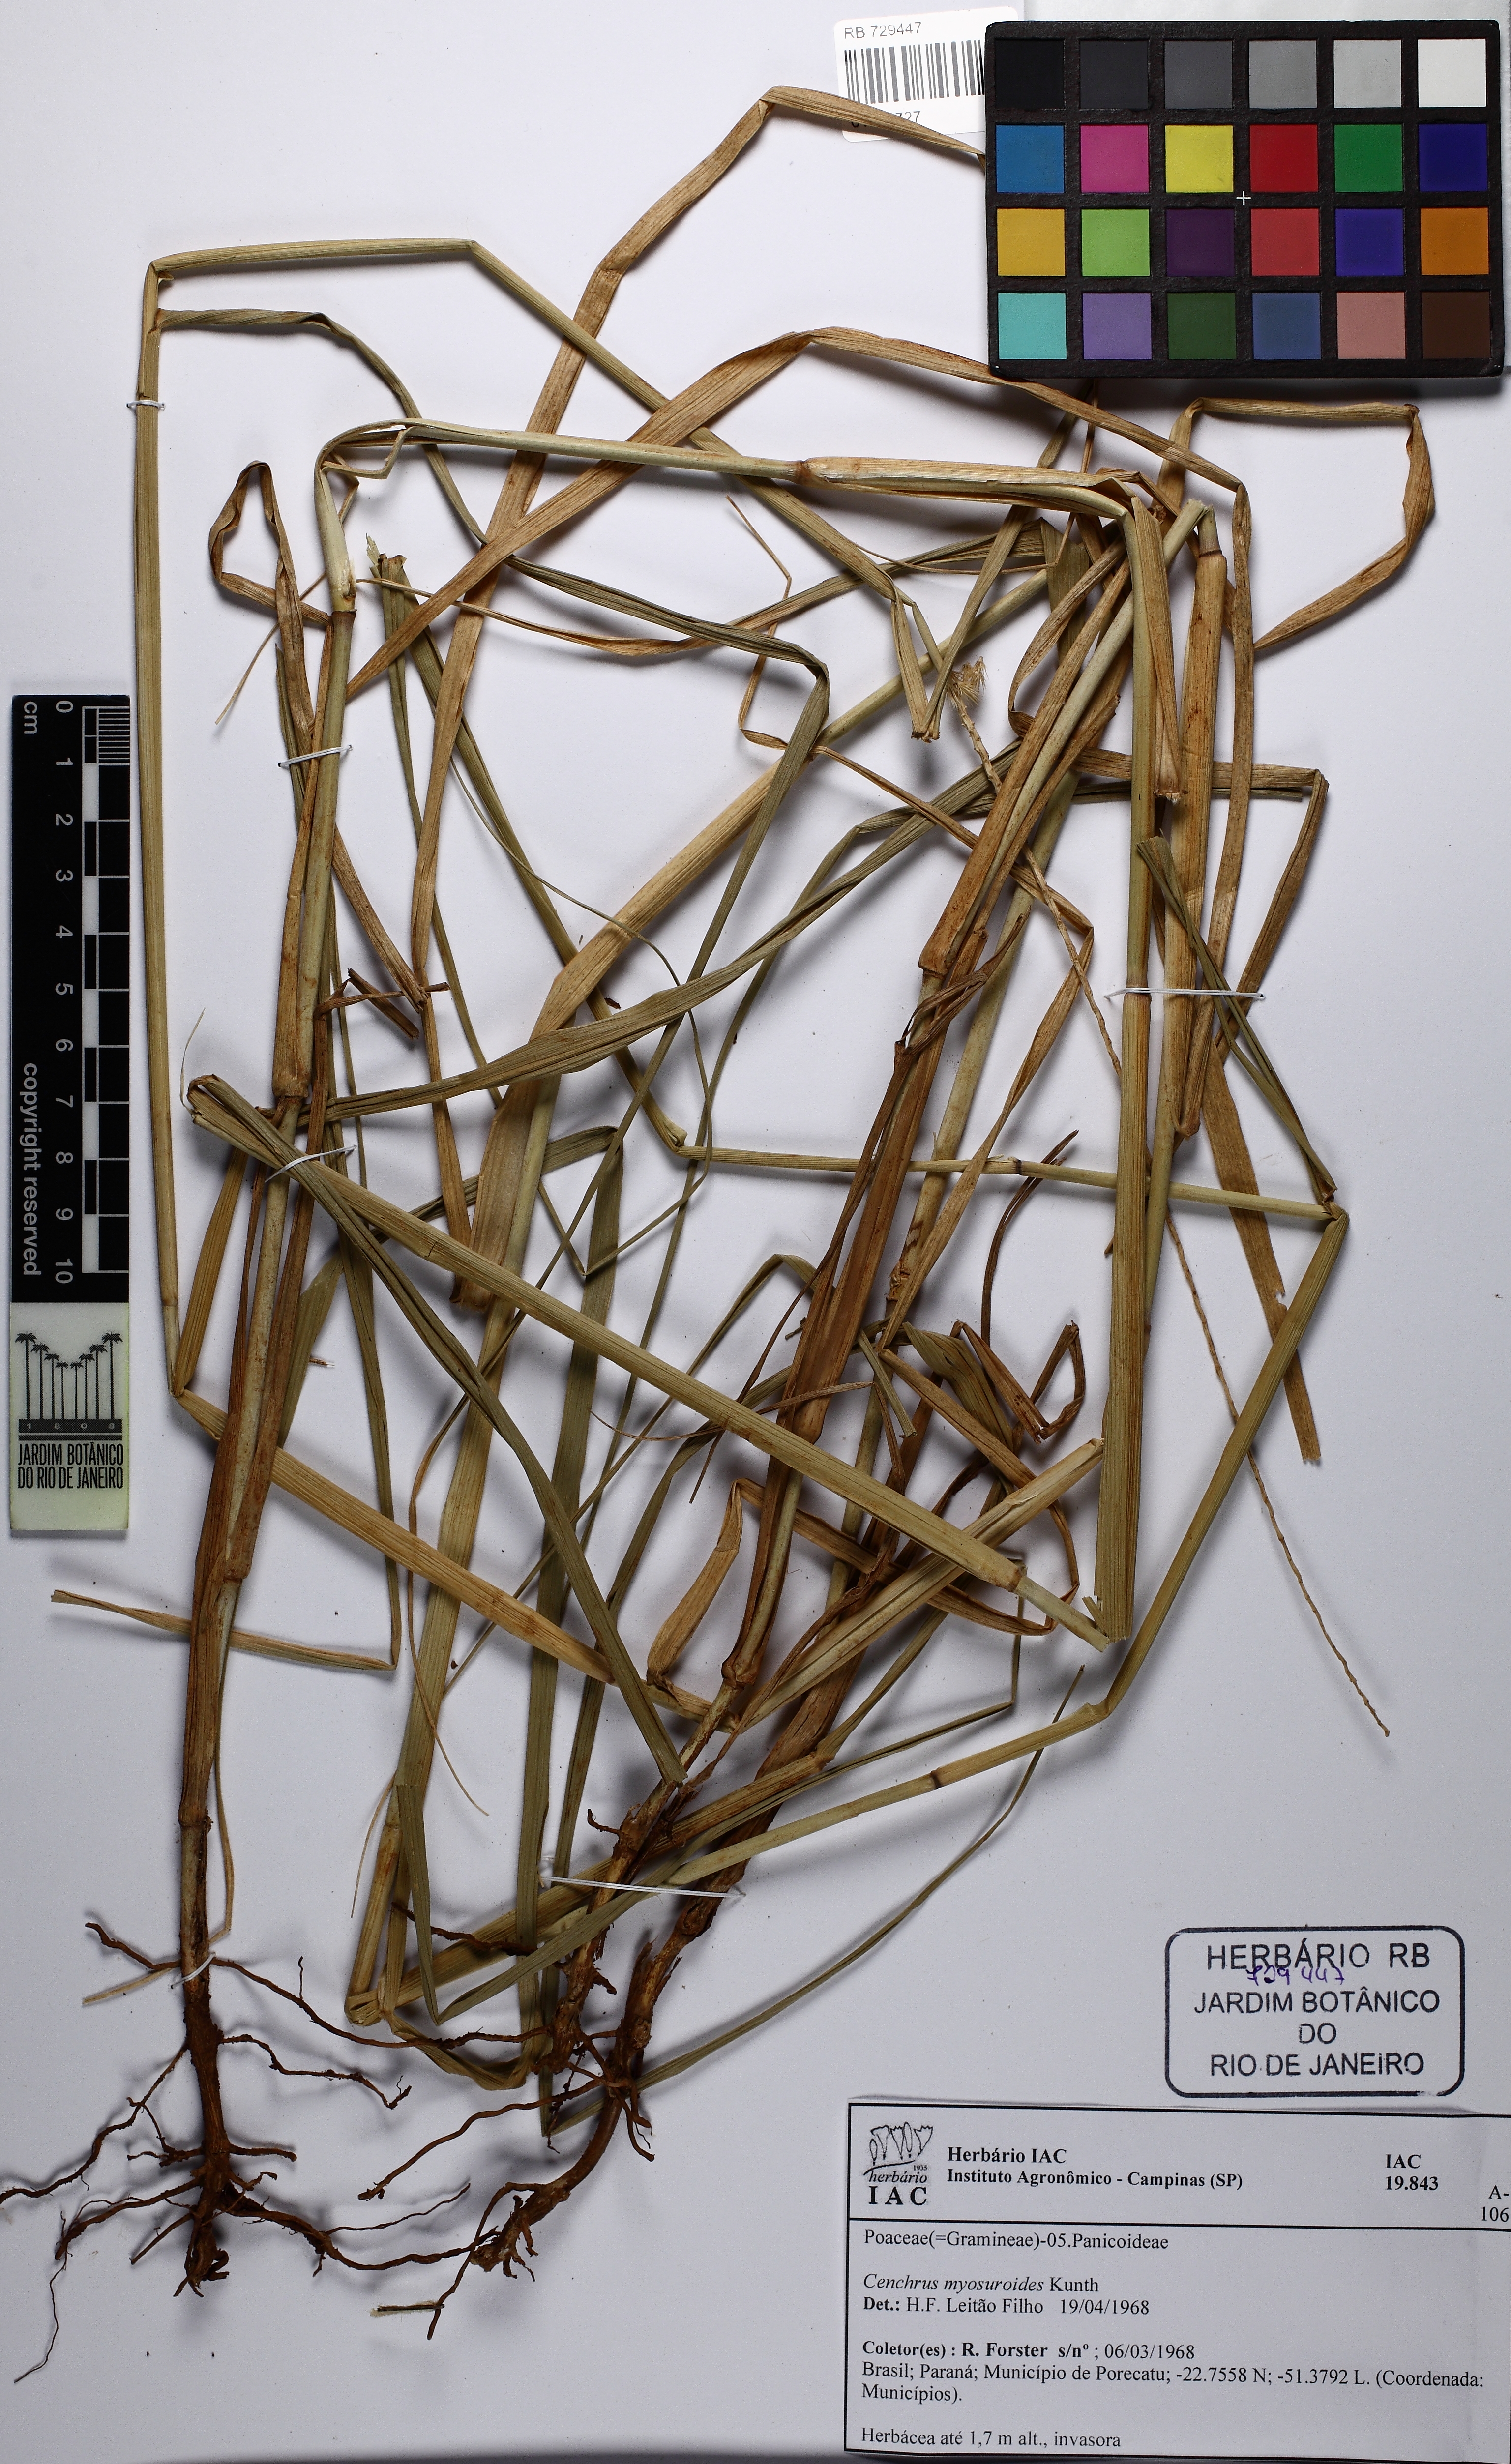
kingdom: Plantae
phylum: Tracheophyta
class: Liliopsida
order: Poales
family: Poaceae
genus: Cenchrus
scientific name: Cenchrus myosuroides
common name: Big sandbur
